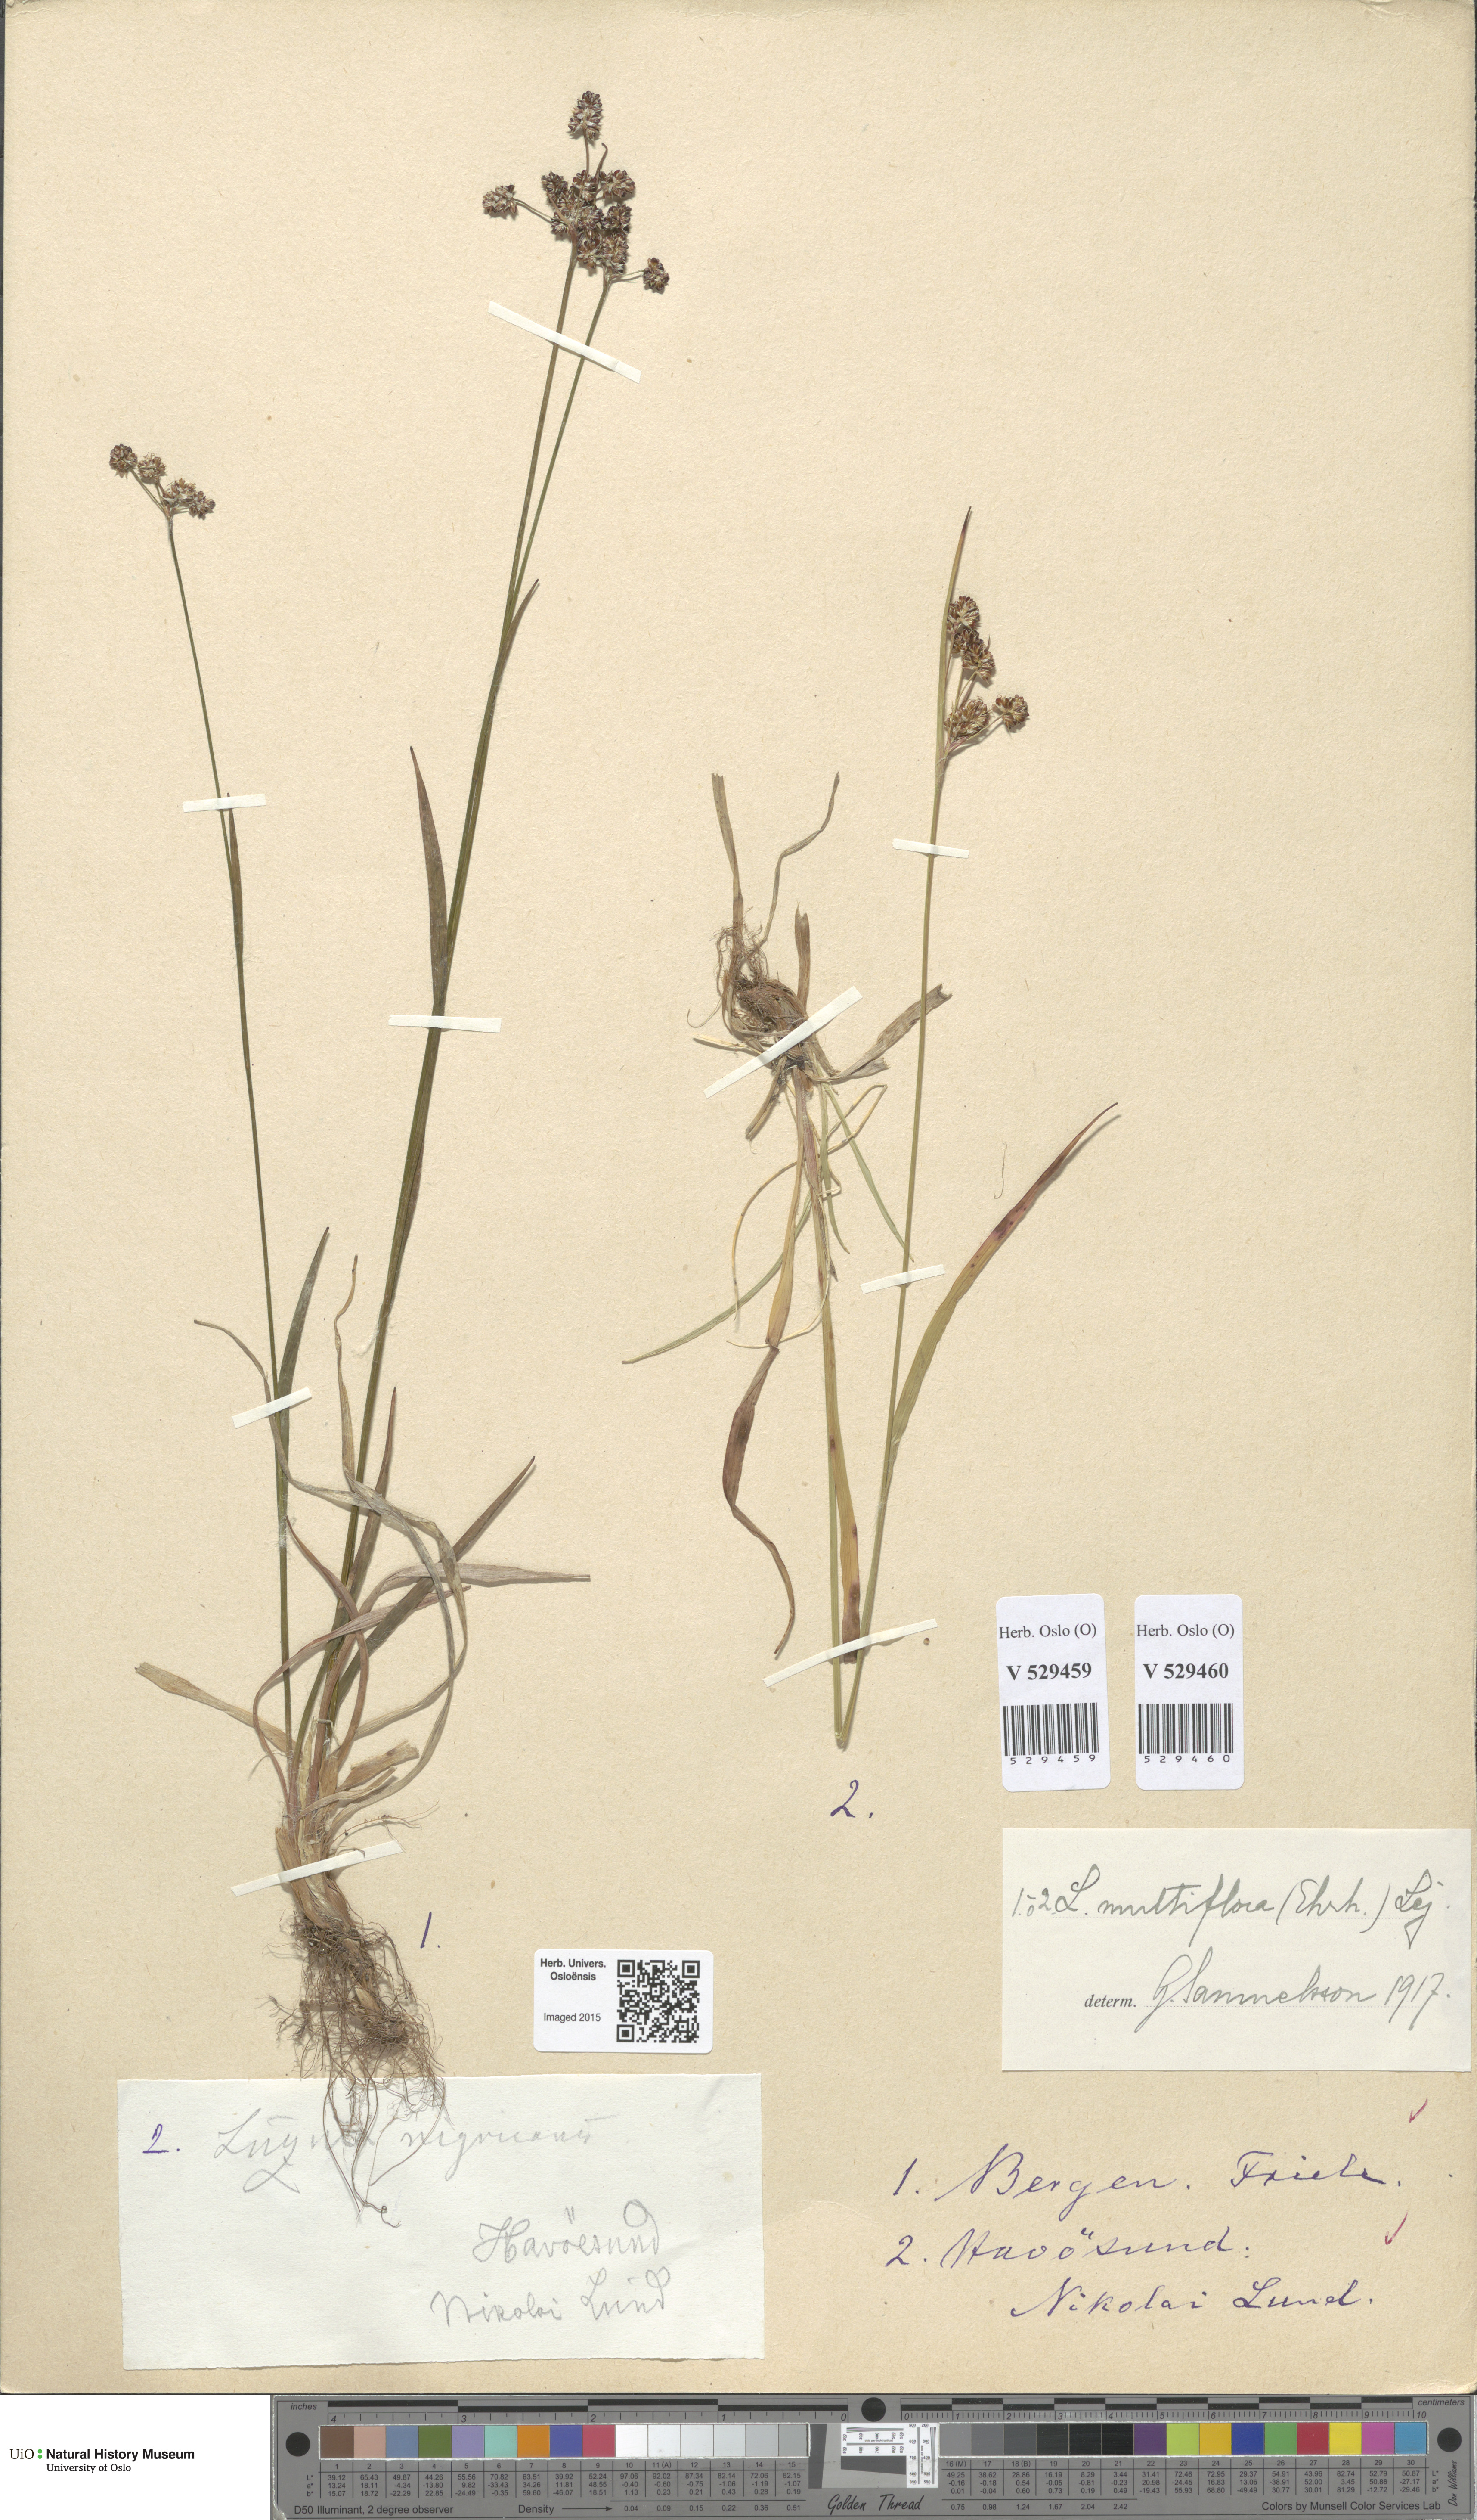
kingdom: Plantae
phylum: Tracheophyta
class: Liliopsida
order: Poales
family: Juncaceae
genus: Luzula
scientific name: Luzula multiflora
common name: Heath wood-rush
